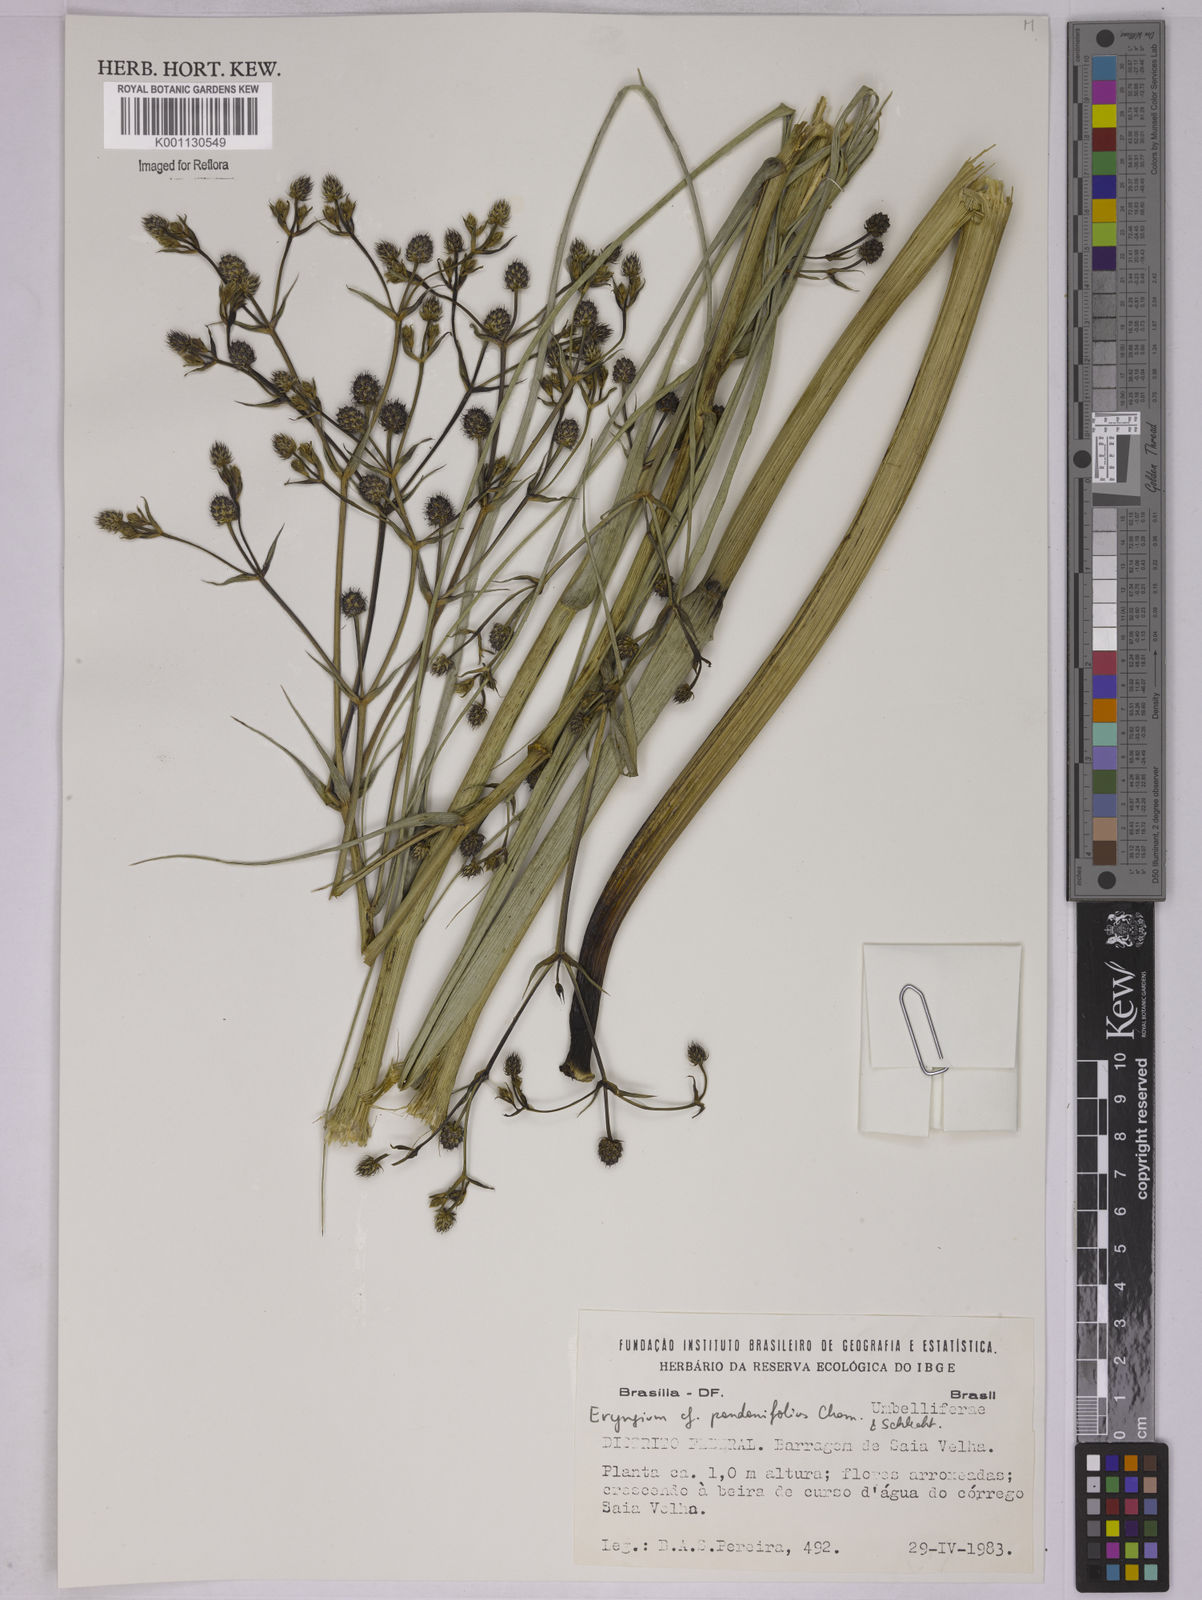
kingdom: Plantae
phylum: Tracheophyta
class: Magnoliopsida
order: Apiales
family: Apiaceae
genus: Eryngium
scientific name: Eryngium pandanifolium
